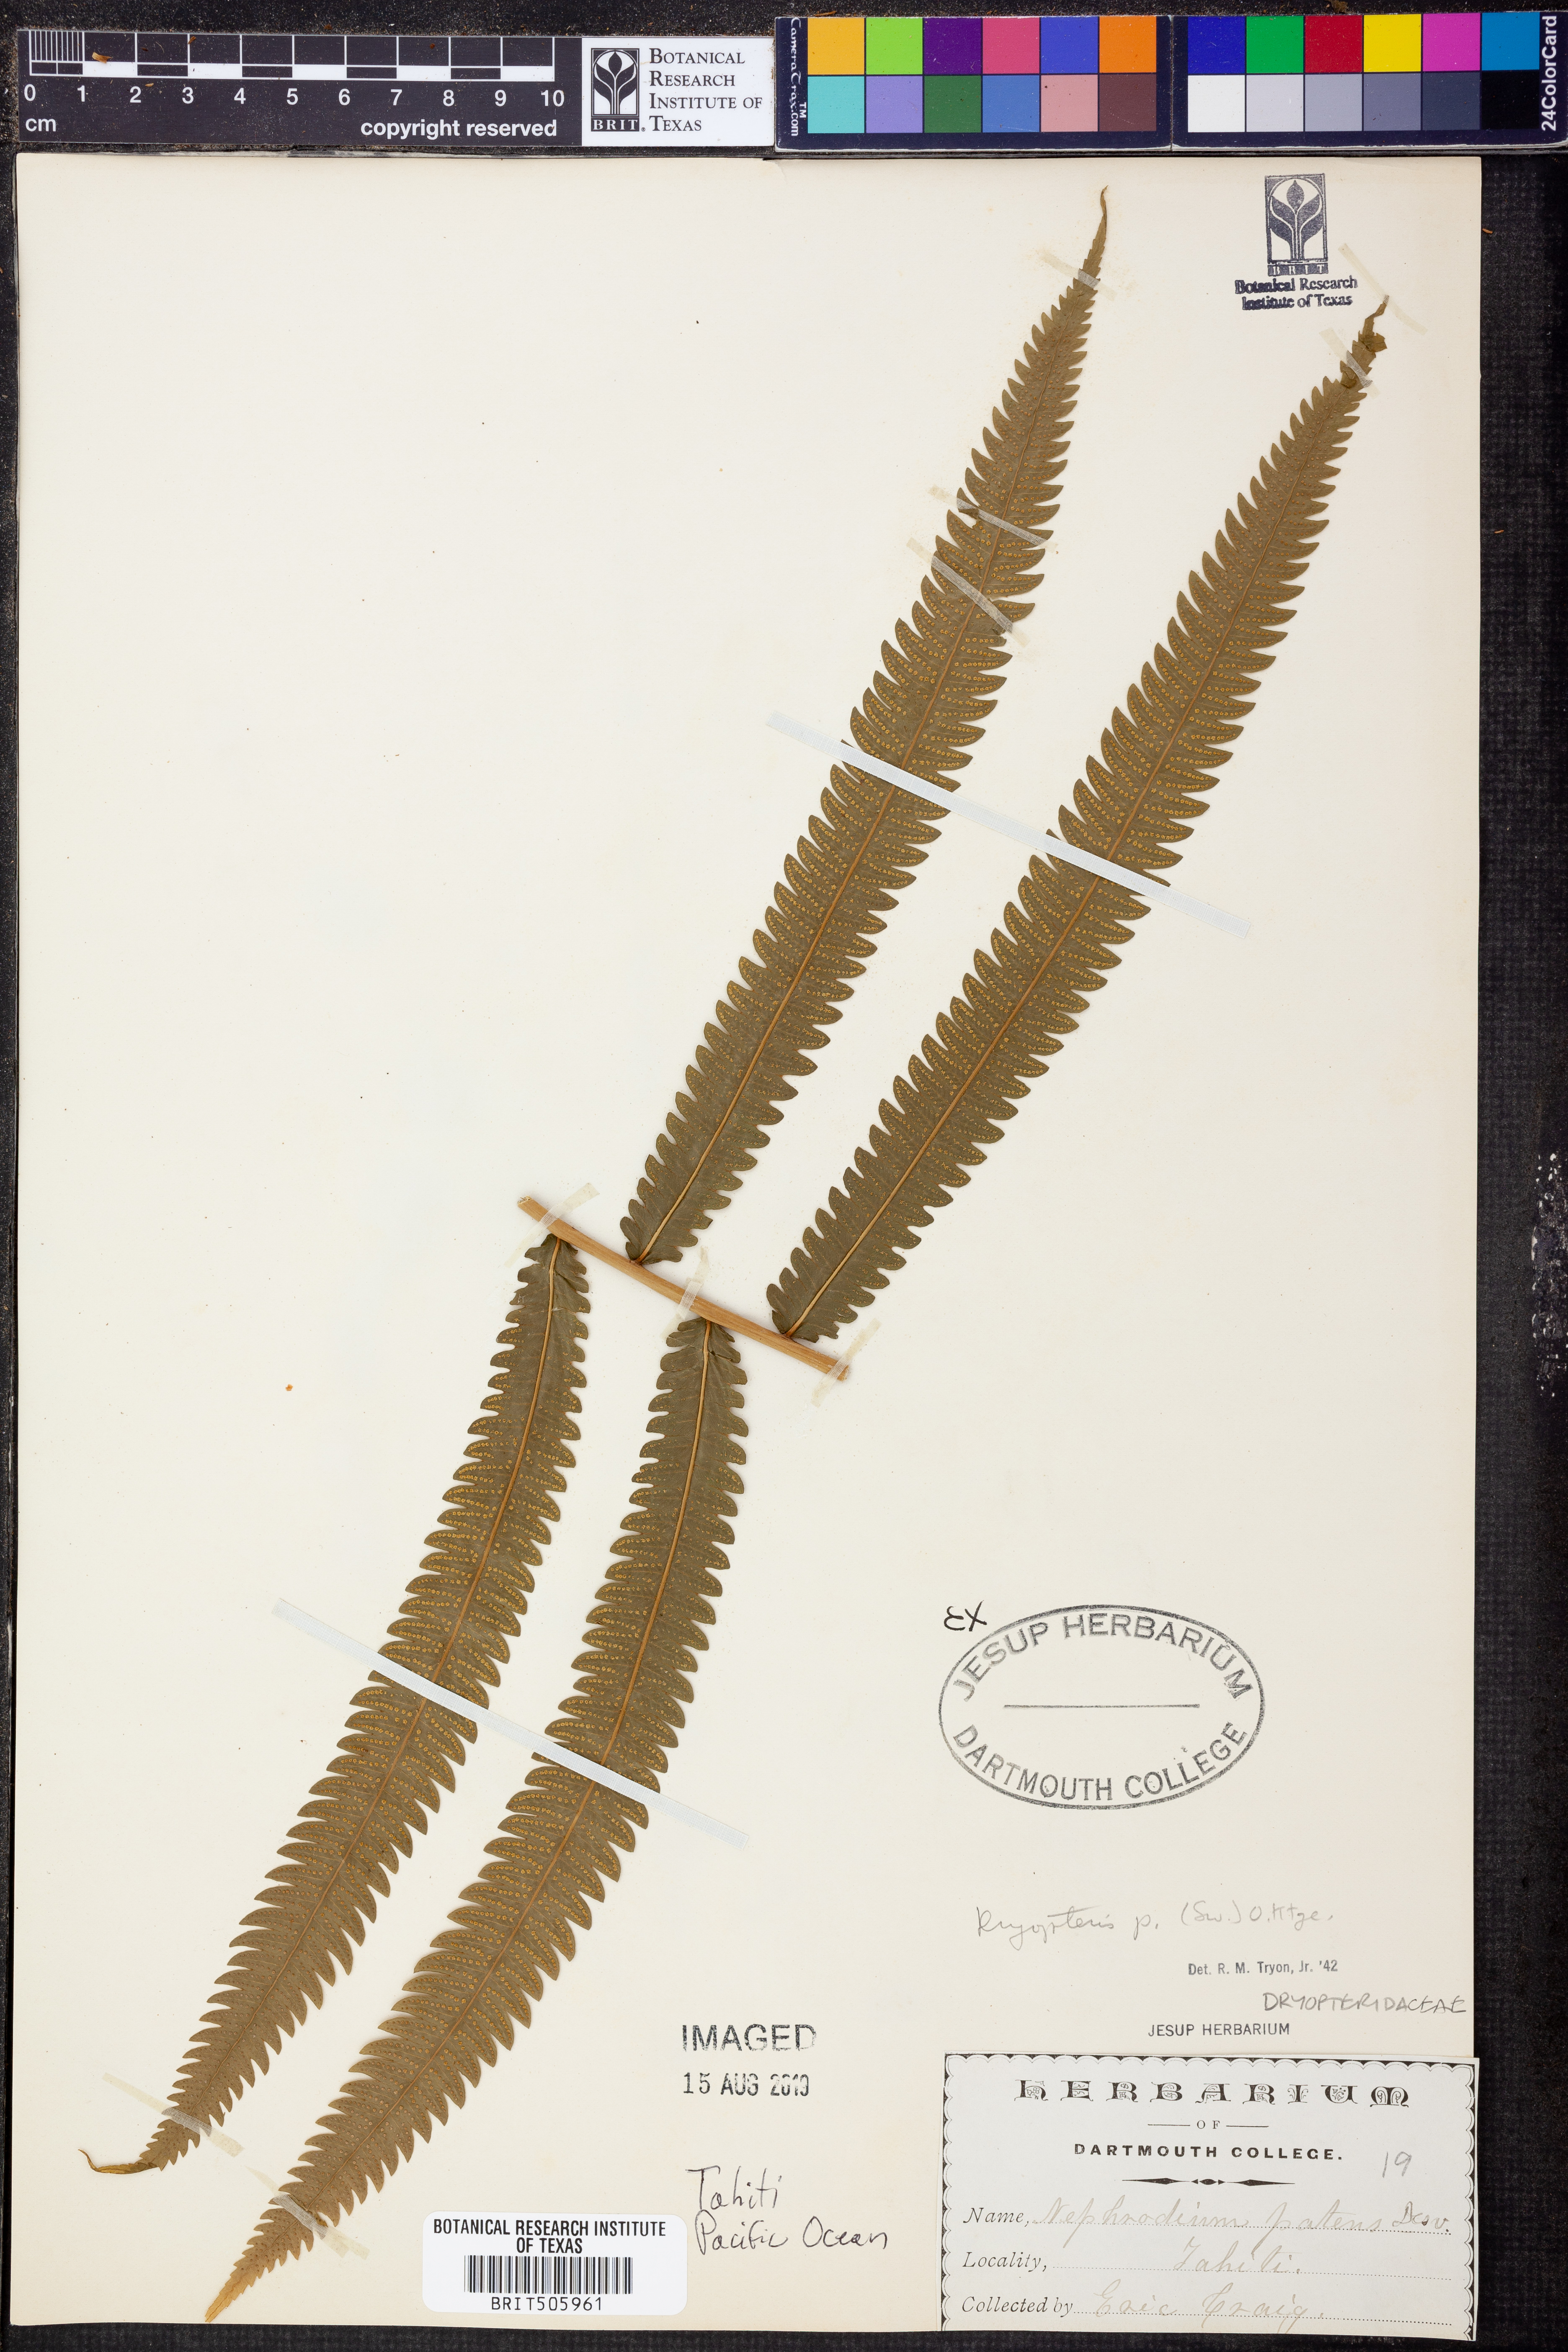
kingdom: Plantae
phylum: Tracheophyta
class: Polypodiopsida
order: Polypodiales
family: Thelypteridaceae
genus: Pelazoneuron
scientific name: Pelazoneuron patens
